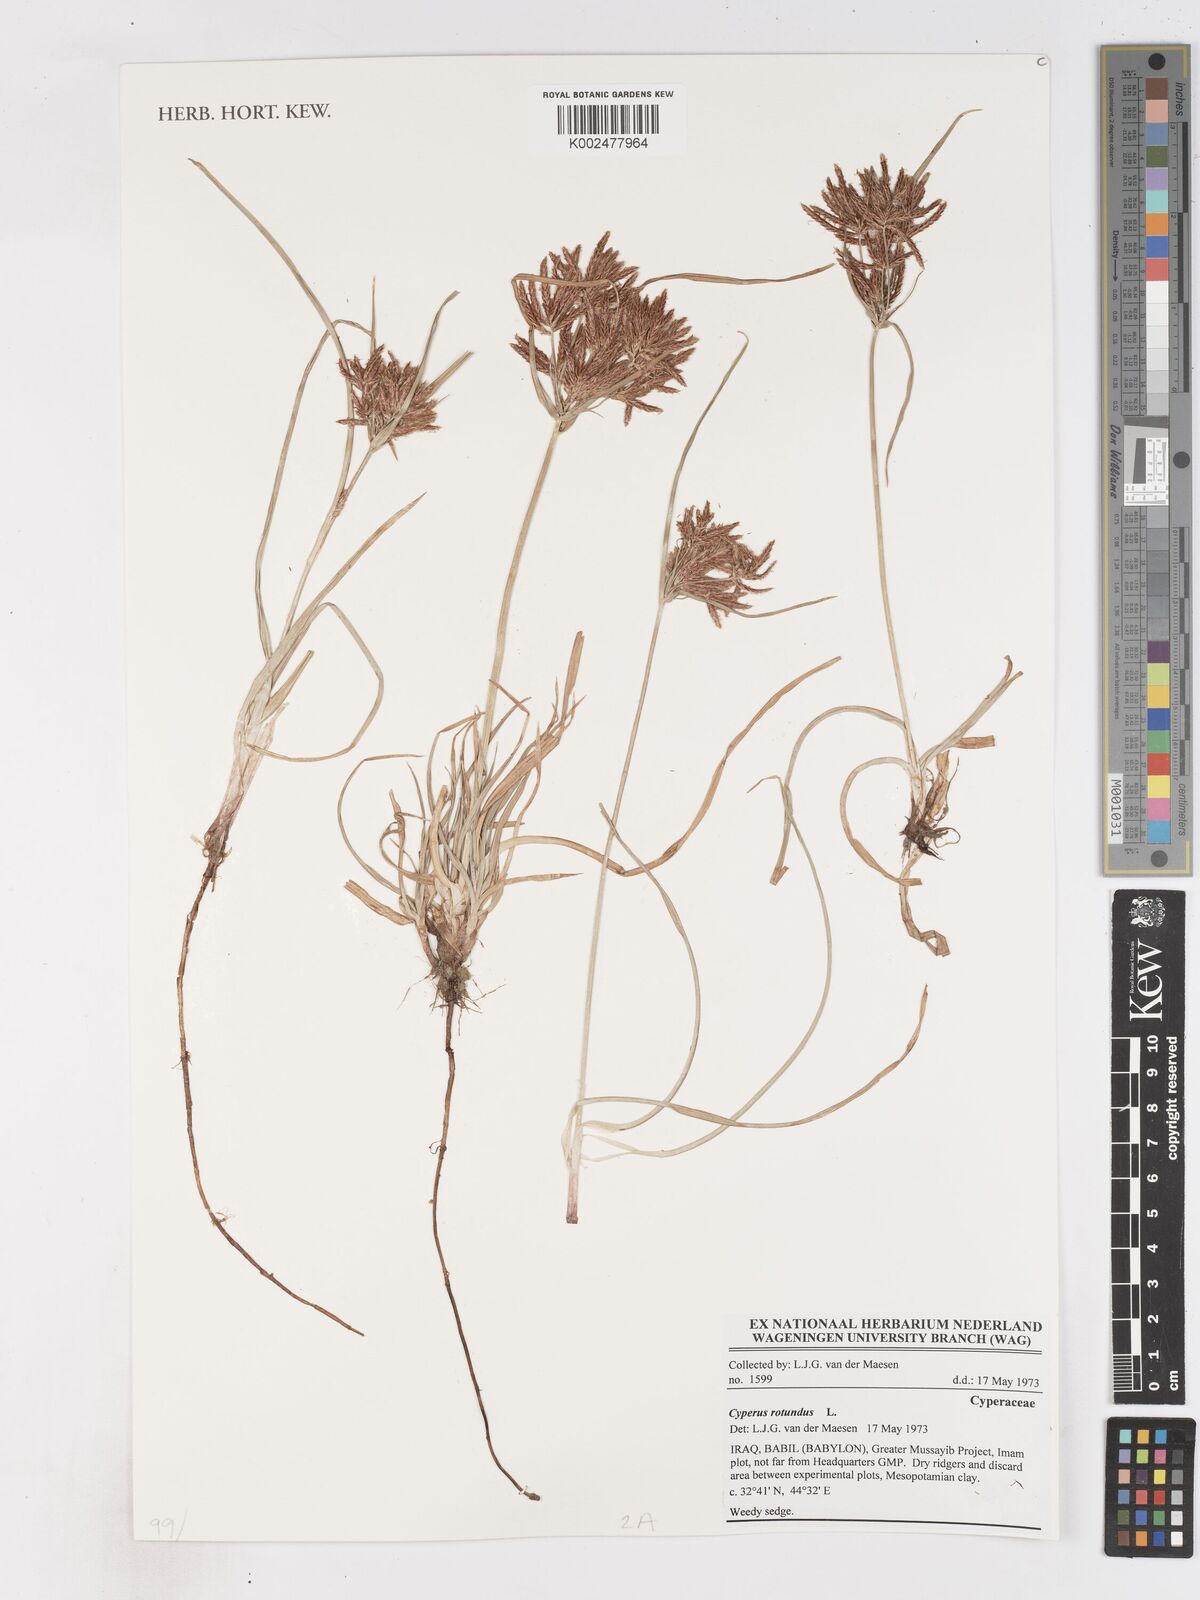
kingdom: Plantae
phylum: Tracheophyta
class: Liliopsida
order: Poales
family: Cyperaceae
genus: Cyperus
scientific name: Cyperus rotundus
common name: Nutgrass
